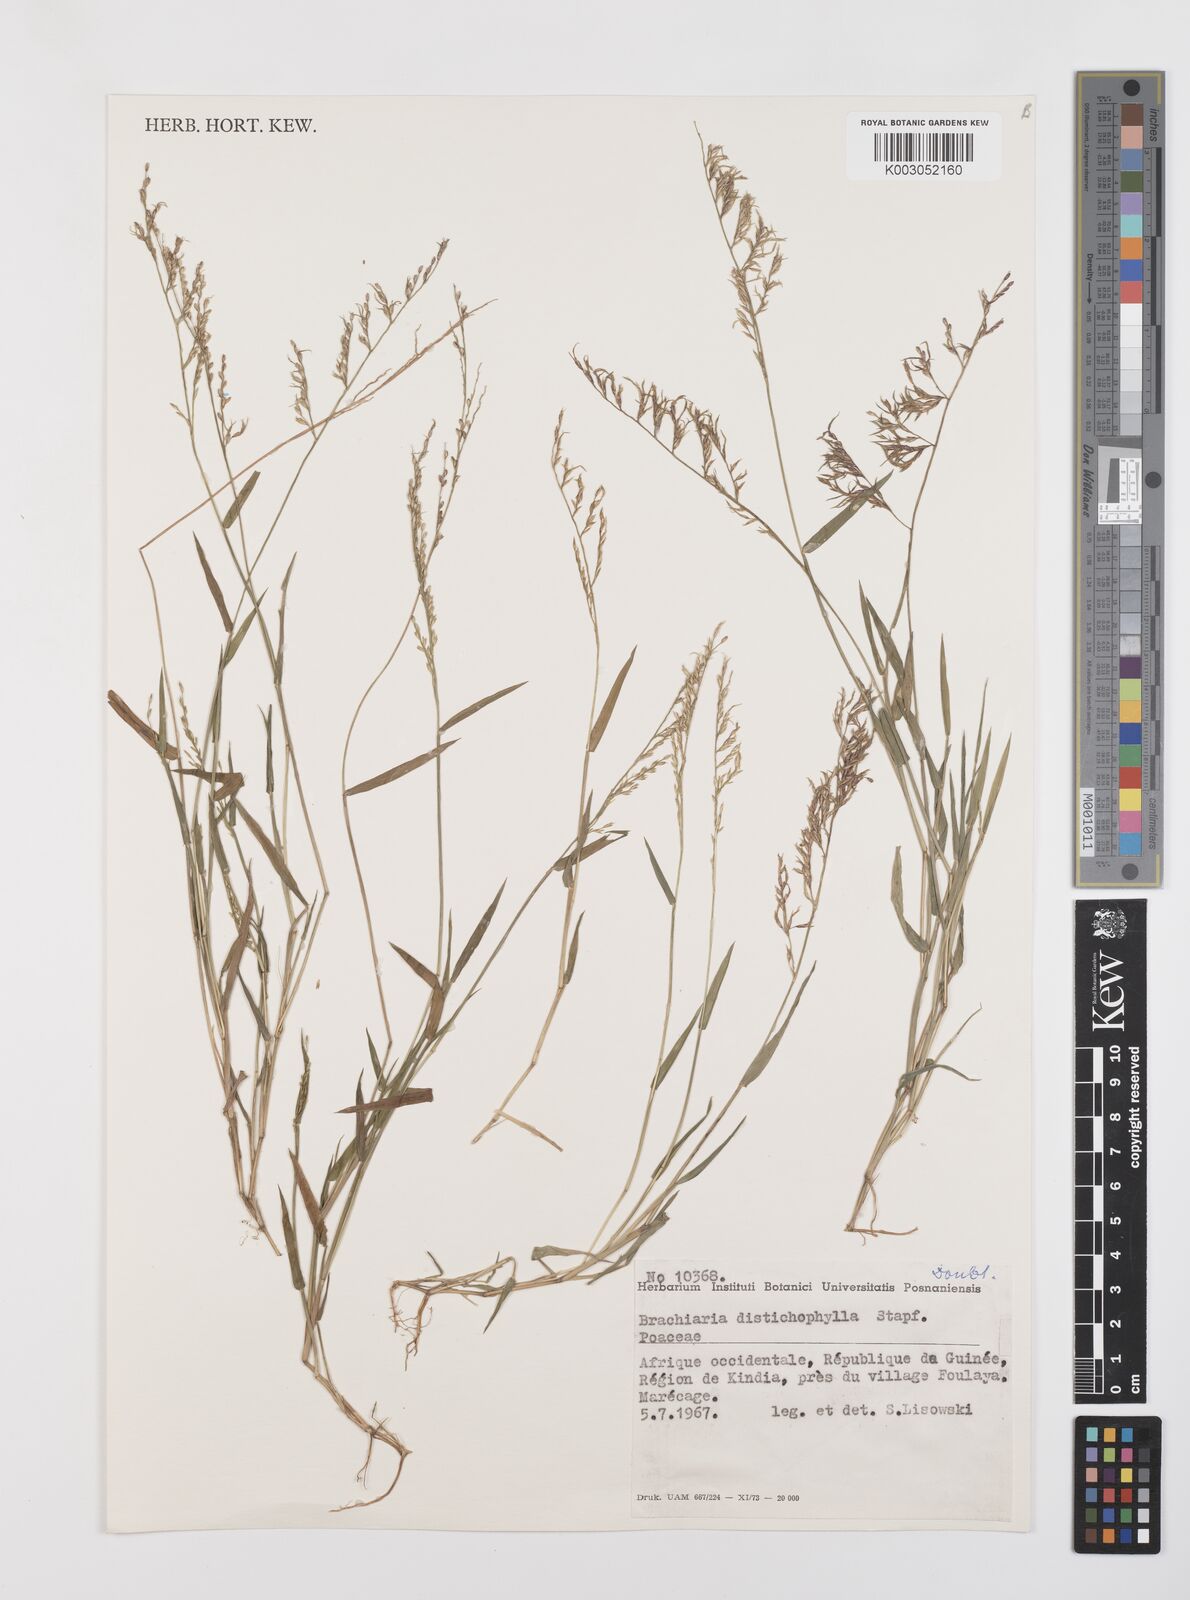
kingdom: Plantae
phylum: Tracheophyta
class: Liliopsida
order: Poales
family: Poaceae
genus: Urochloa
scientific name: Urochloa villosa
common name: Hairy signalgrass
